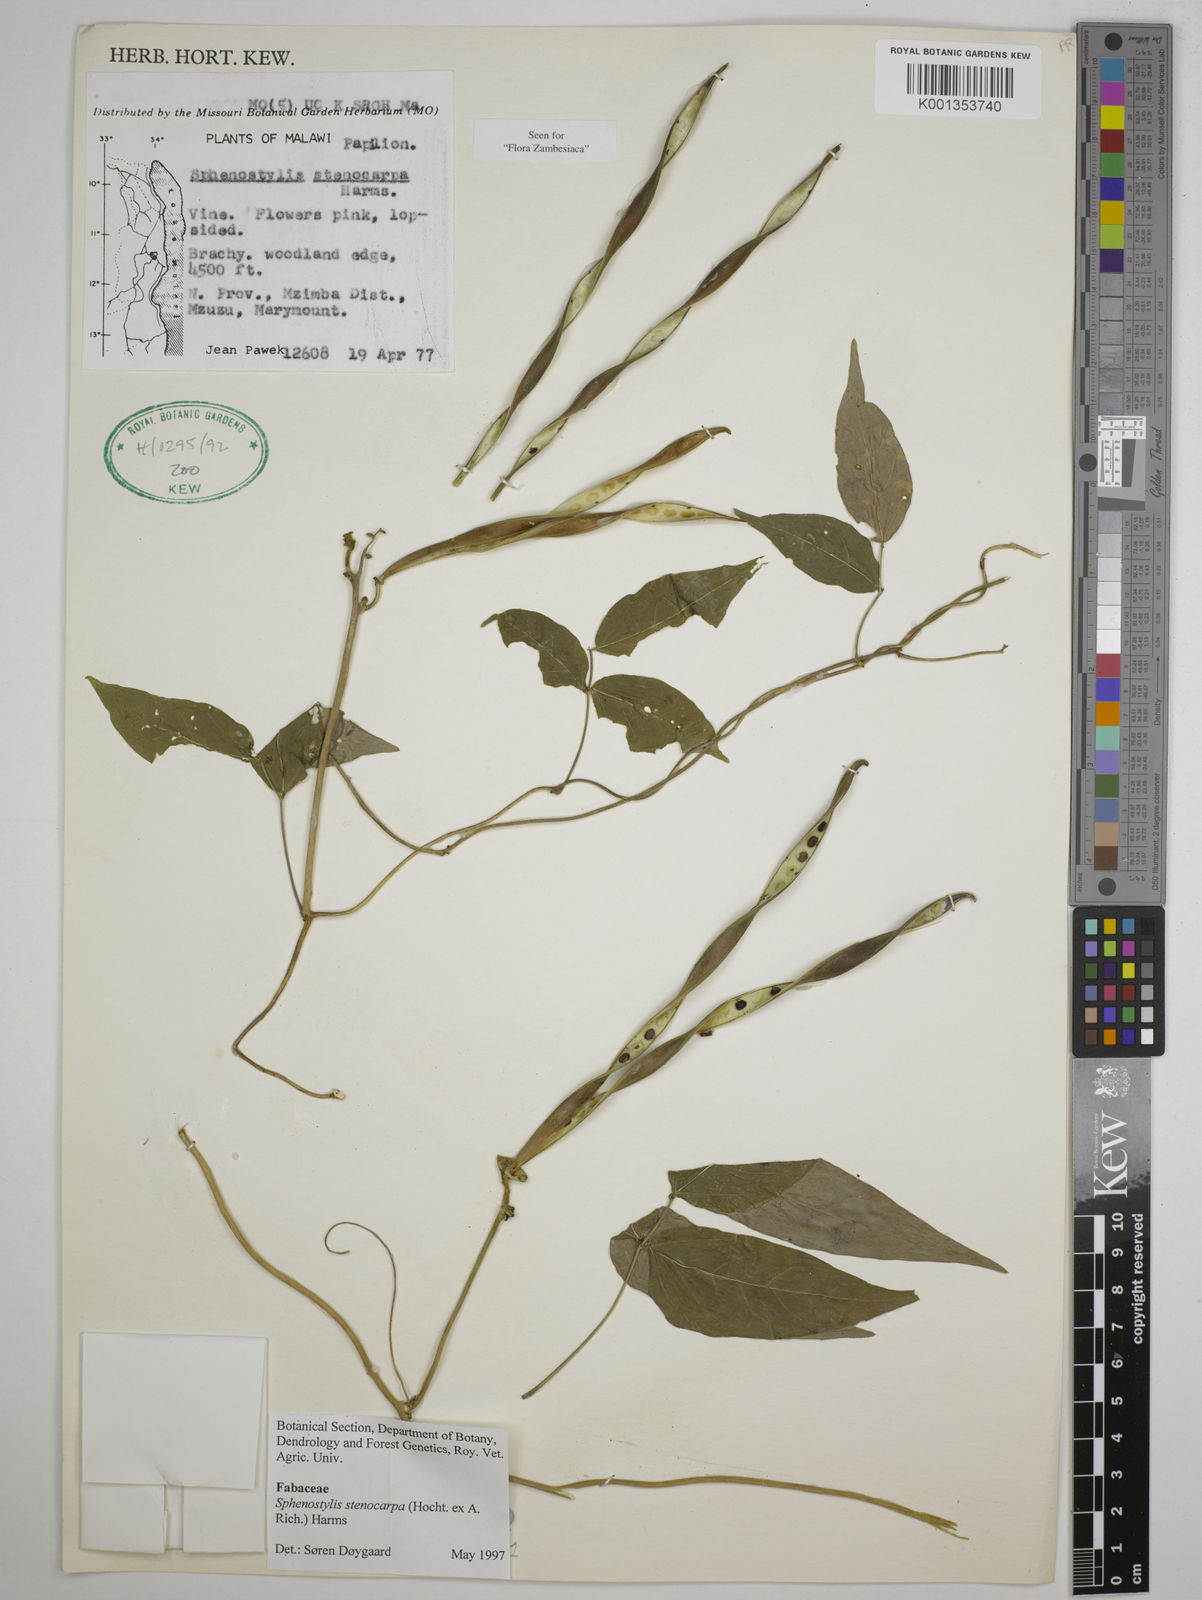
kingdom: Plantae
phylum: Tracheophyta
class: Magnoliopsida
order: Fabales
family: Fabaceae
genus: Sphenostylis
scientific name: Sphenostylis stenocarpa
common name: Yam-pea
